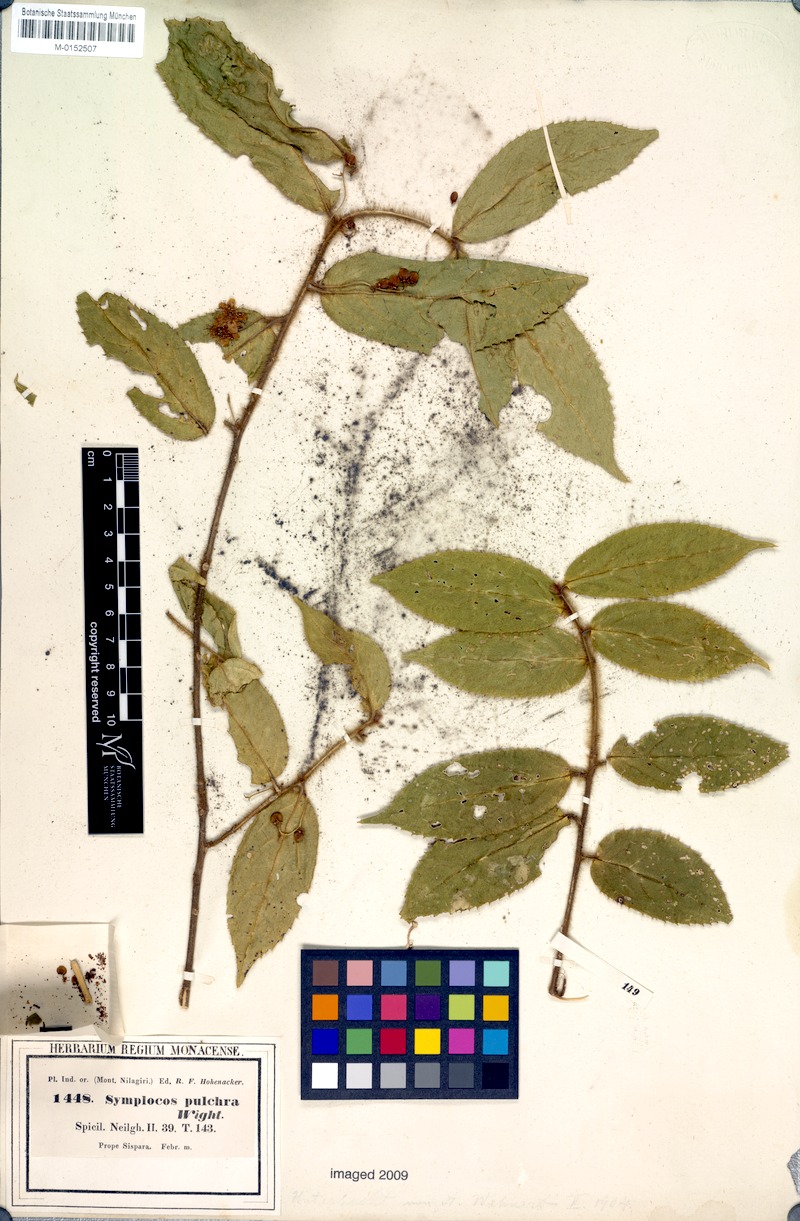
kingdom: Plantae
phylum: Tracheophyta
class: Magnoliopsida
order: Ericales
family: Symplocaceae
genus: Symplocos
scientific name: Symplocos pulchra
